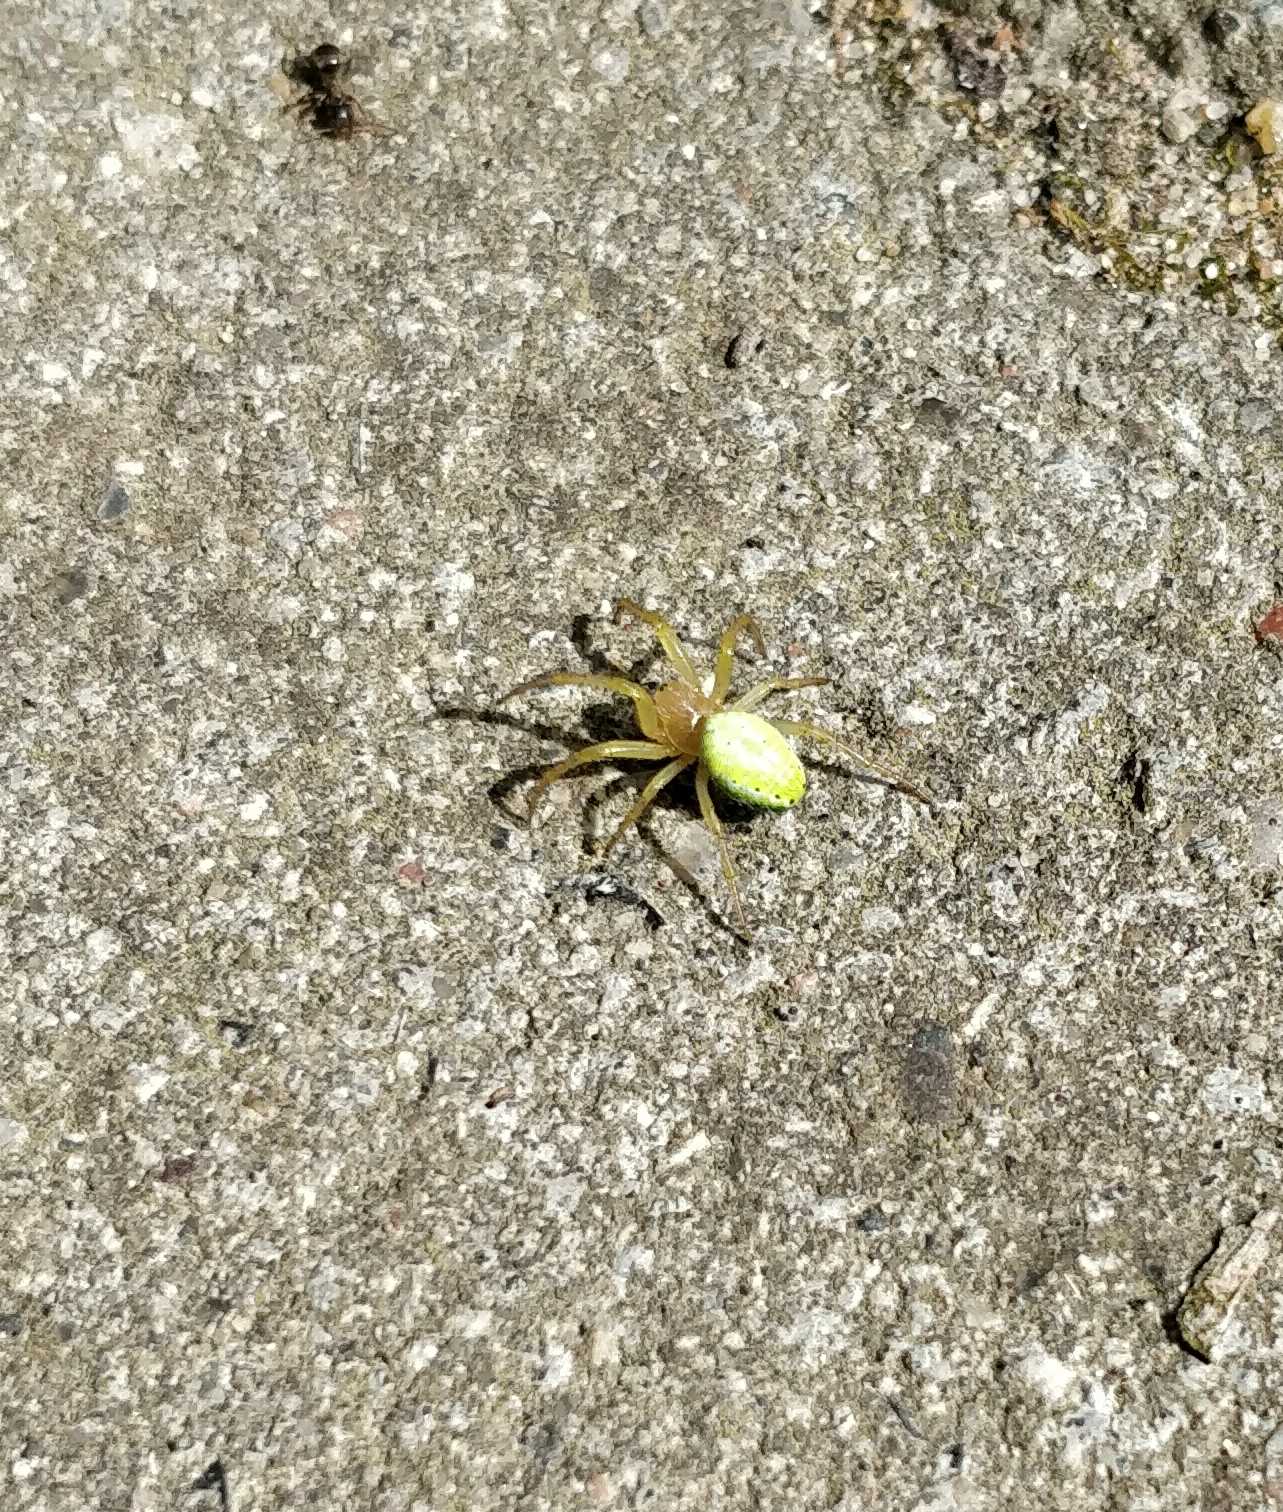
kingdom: Animalia
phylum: Arthropoda
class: Arachnida
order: Araneae
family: Araneidae
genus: Araniella
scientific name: Araniella
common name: Agurkeedderkopslægten
